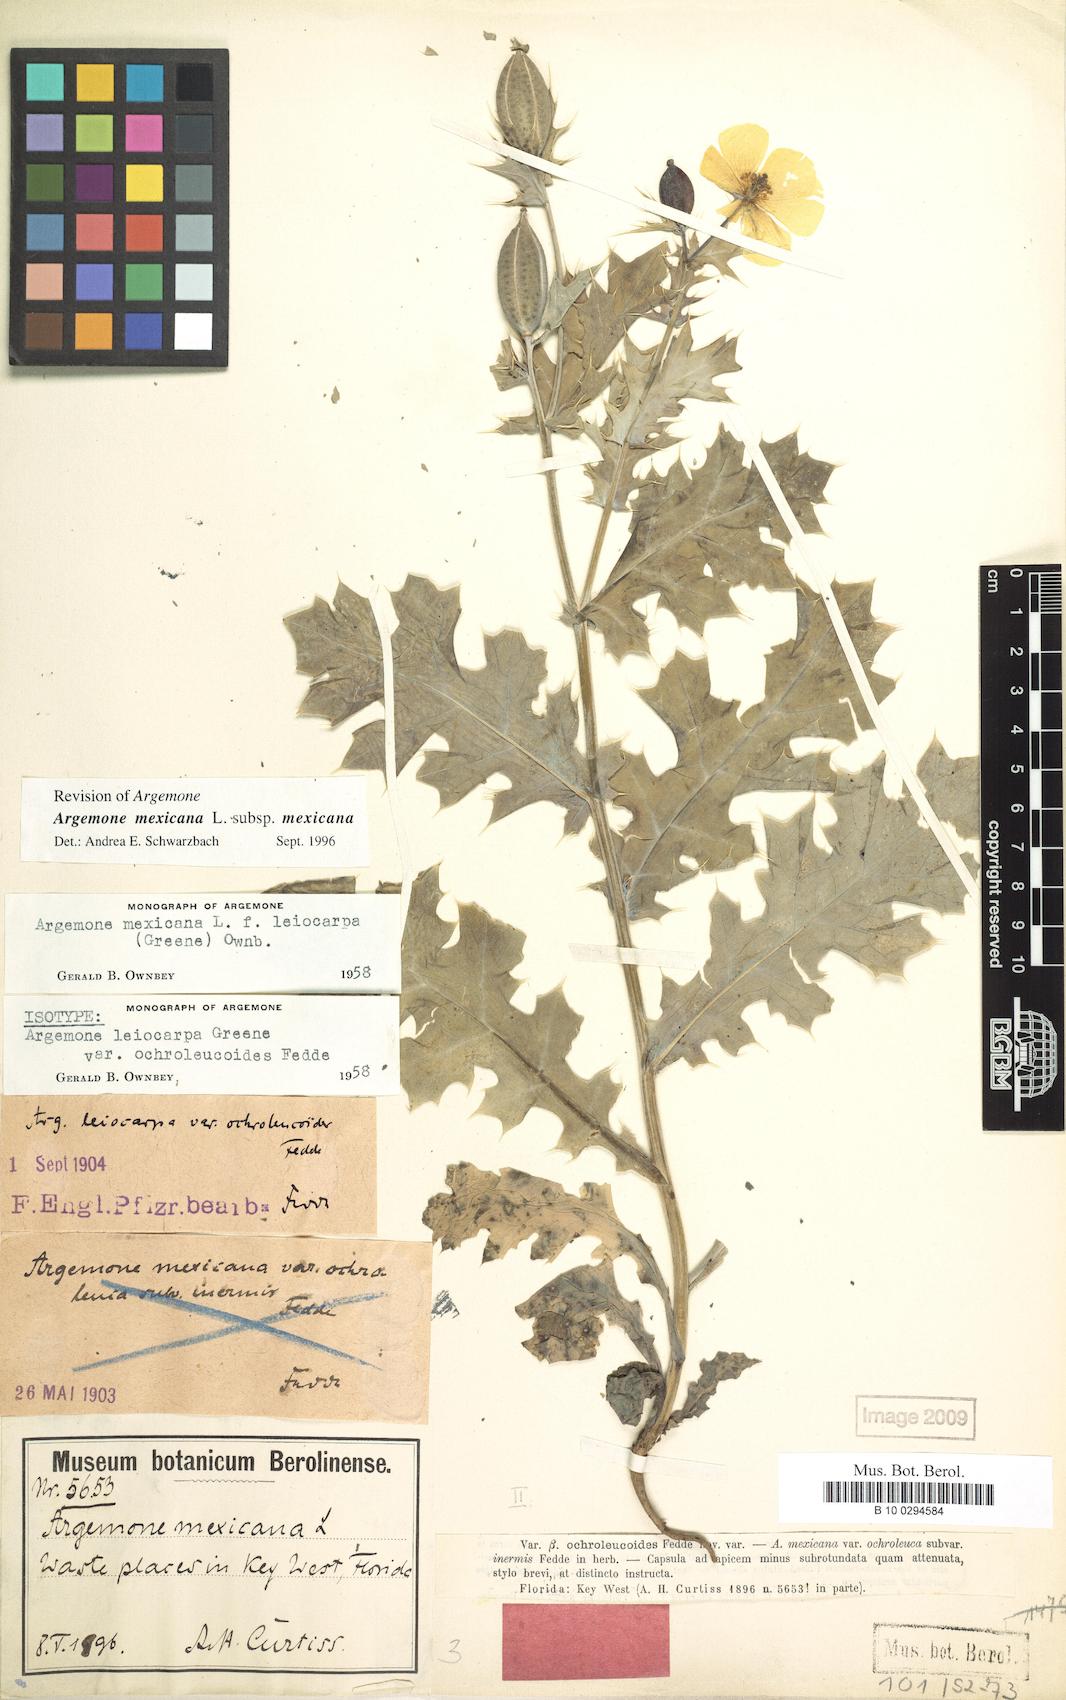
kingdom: Plantae
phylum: Tracheophyta
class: Magnoliopsida
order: Ranunculales
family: Papaveraceae
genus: Argemone
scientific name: Argemone mexicana
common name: Mexican poppy
